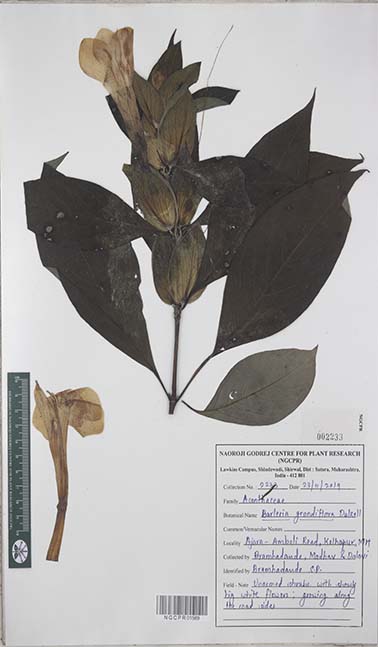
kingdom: Plantae
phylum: Tracheophyta
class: Magnoliopsida
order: Lamiales
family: Acanthaceae
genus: Barleria
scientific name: Barleria grandiflora
